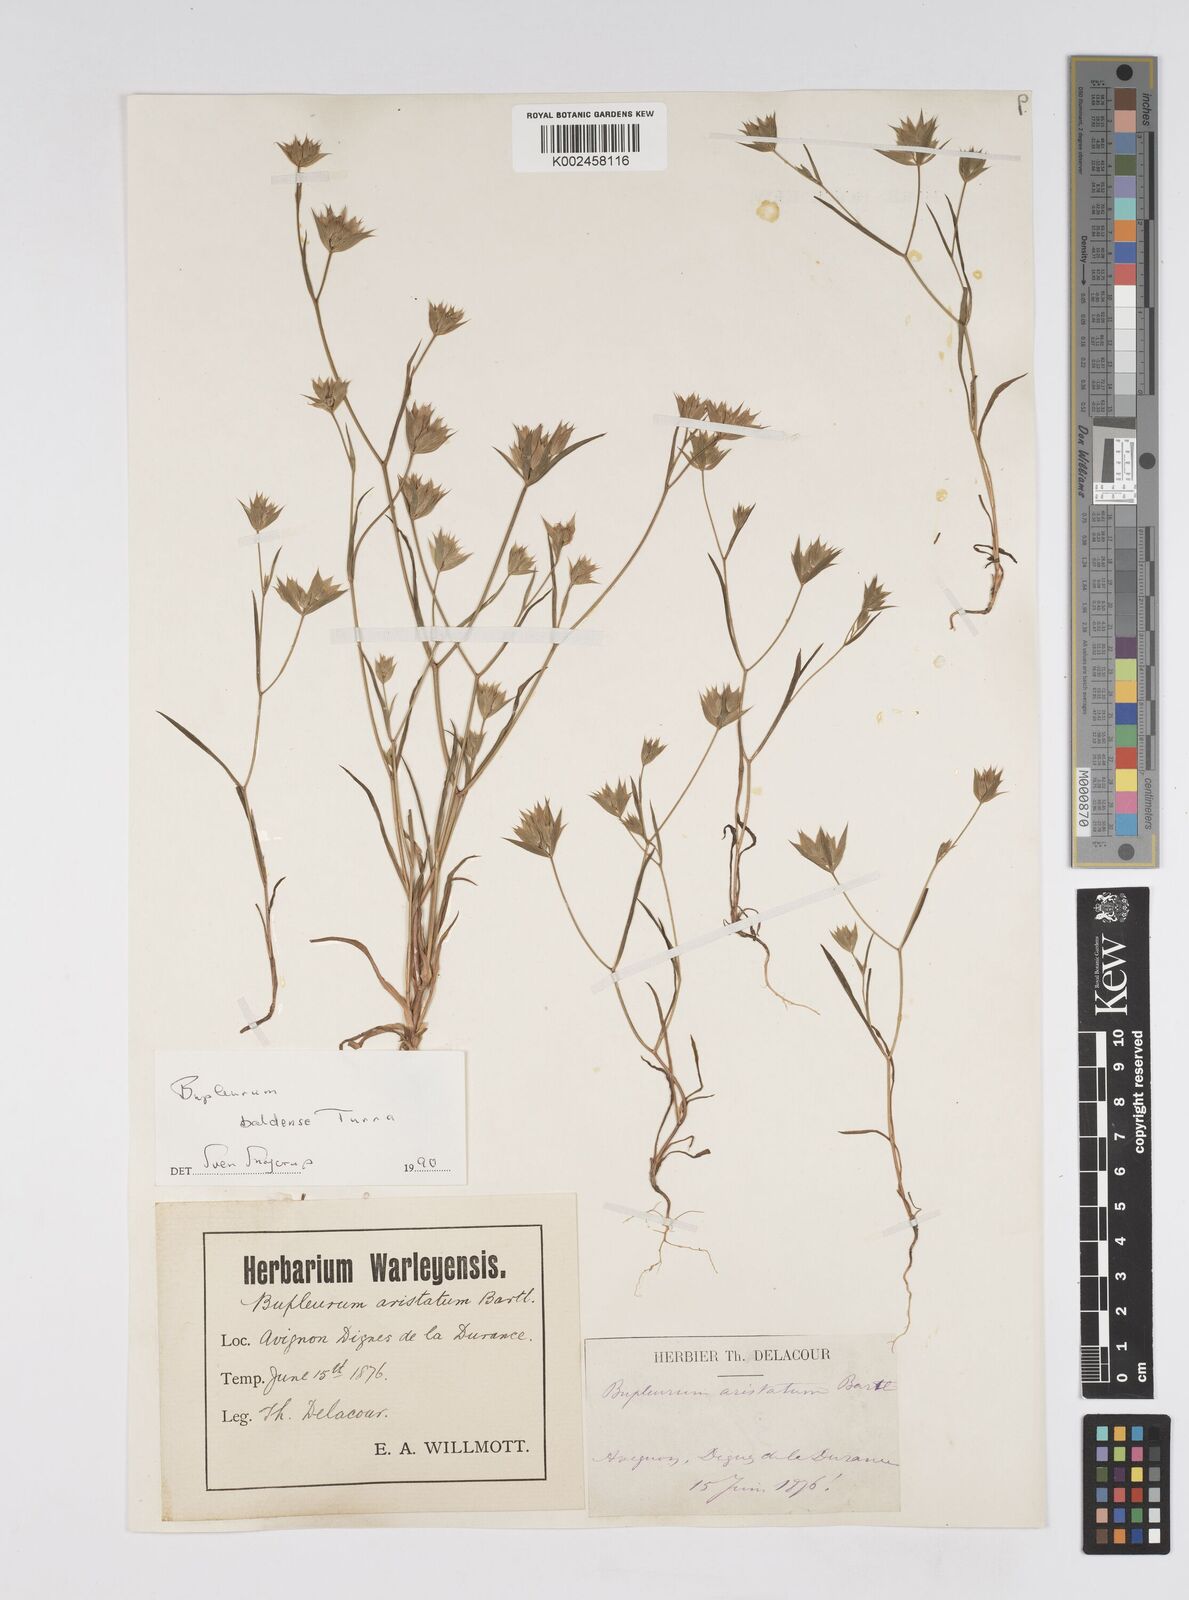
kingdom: Plantae
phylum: Tracheophyta
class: Magnoliopsida
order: Apiales
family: Apiaceae
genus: Bupleurum
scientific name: Bupleurum baldense
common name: Small hare's-ear
